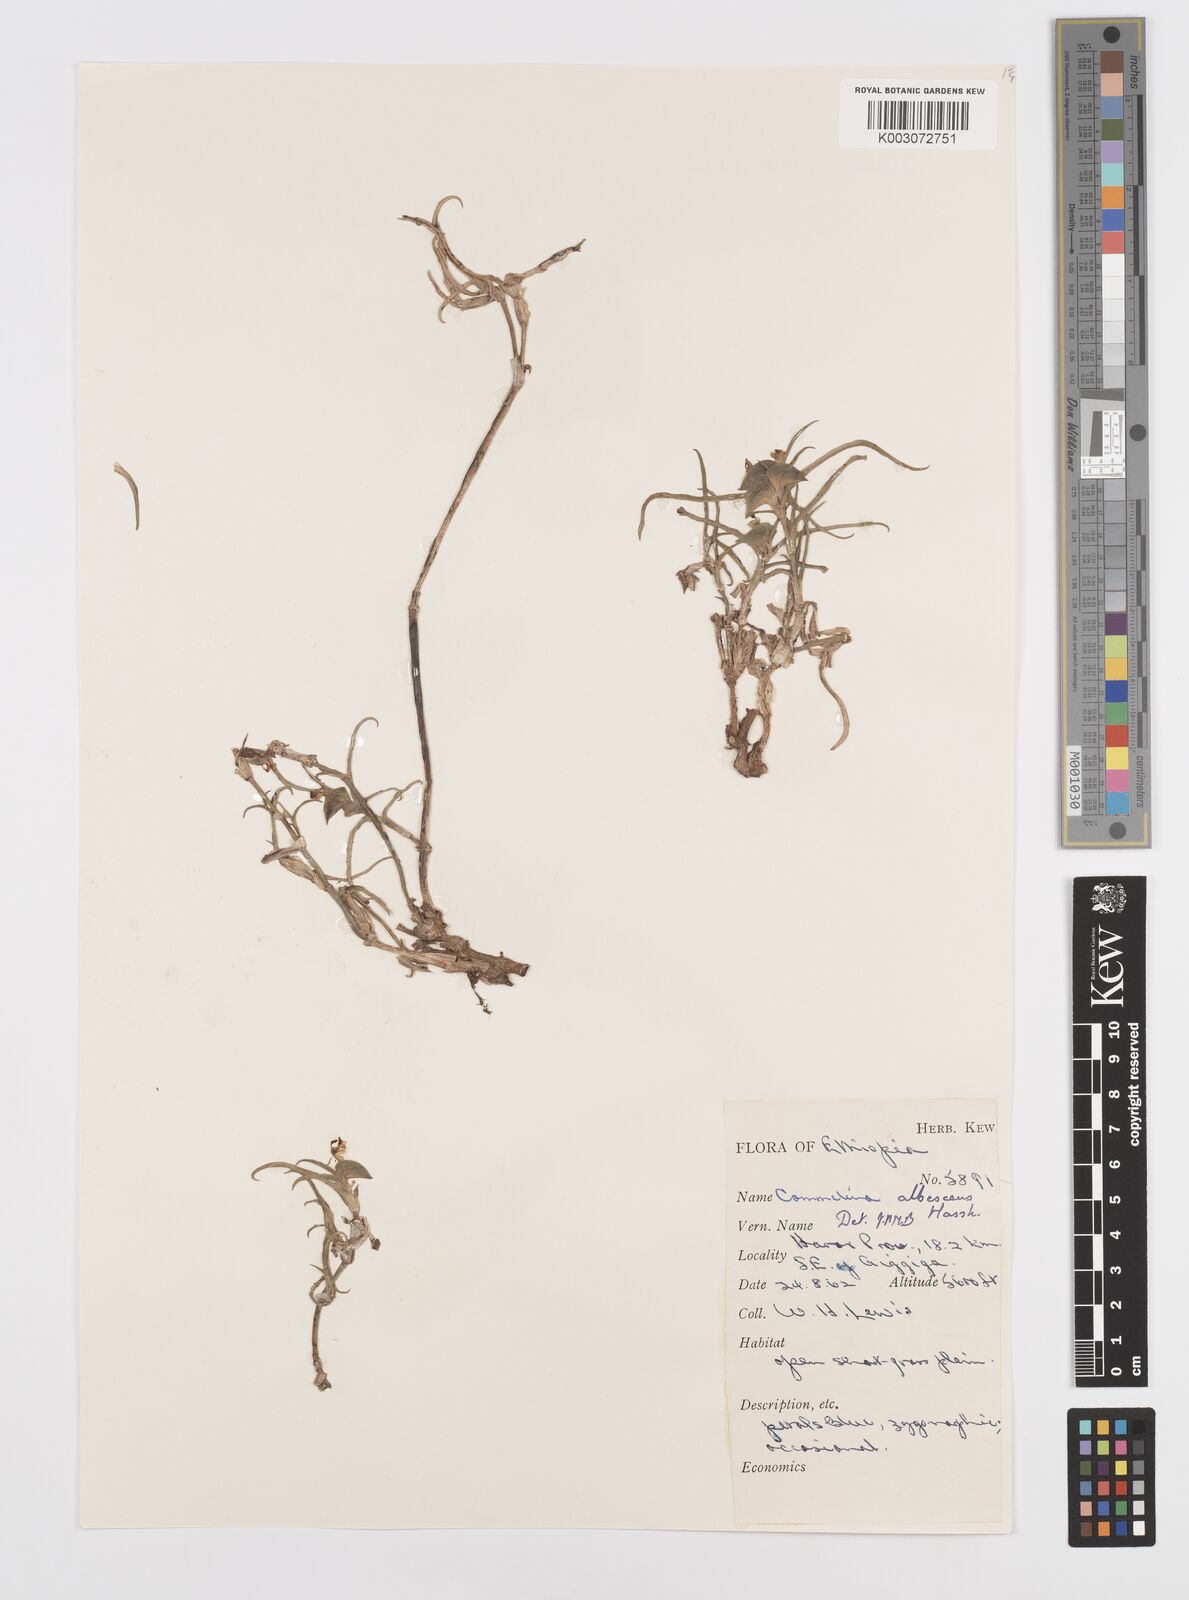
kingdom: Plantae
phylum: Tracheophyta
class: Liliopsida
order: Commelinales
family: Commelinaceae
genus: Commelina
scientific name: Commelina albescens
